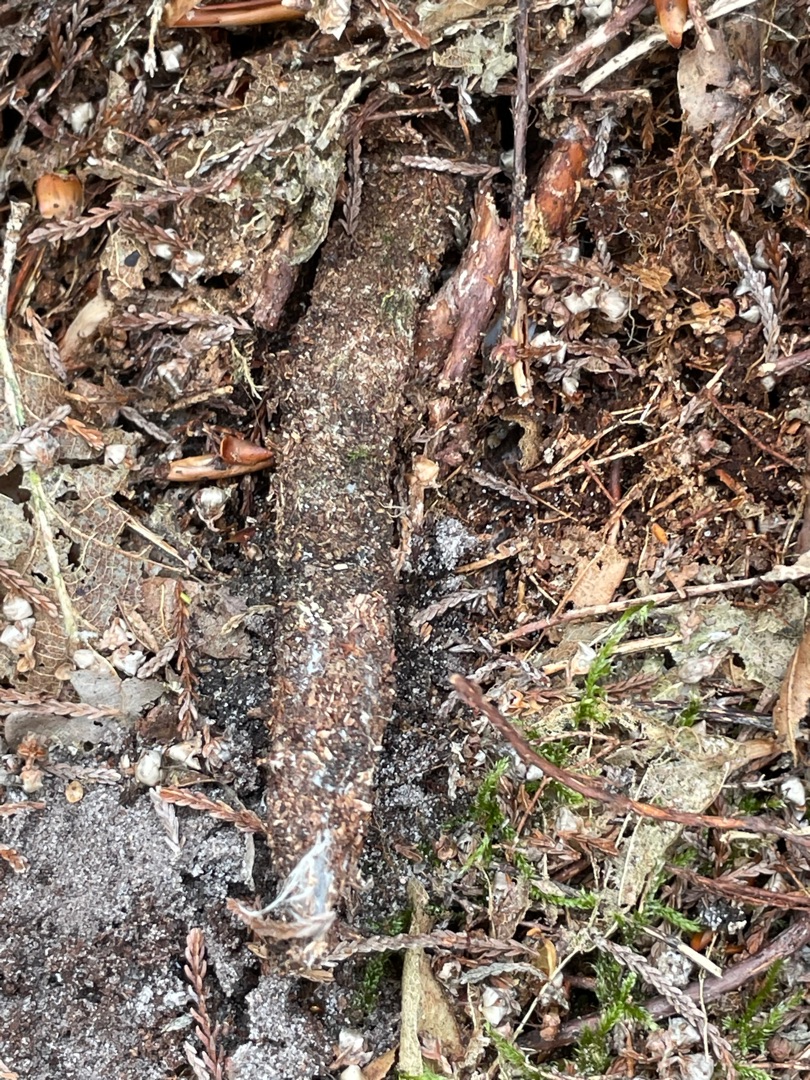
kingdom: Animalia
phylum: Arthropoda
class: Arachnida
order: Araneae
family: Atypidae
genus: Atypus
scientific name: Atypus affinis
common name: Nordlig fugleedderkop
